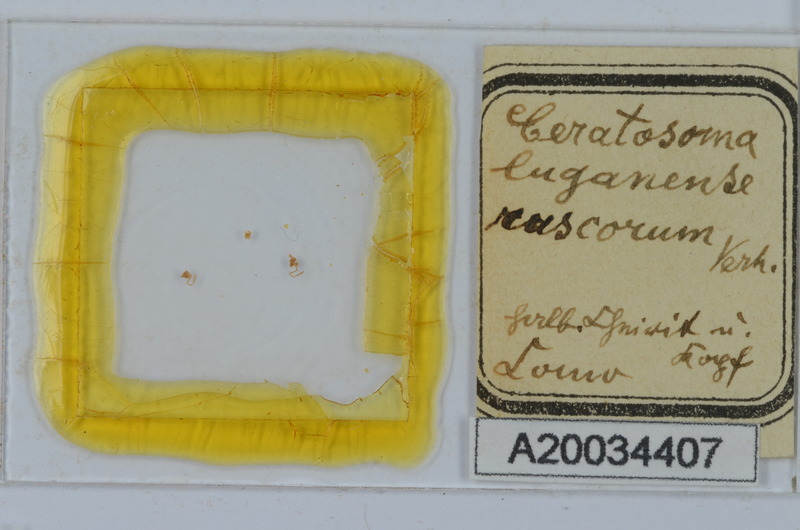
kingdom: Animalia
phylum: Arthropoda
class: Diplopoda
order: Chordeumatida
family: Craspedosomatidae
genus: Bomogona
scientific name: Bomogona lombardica
